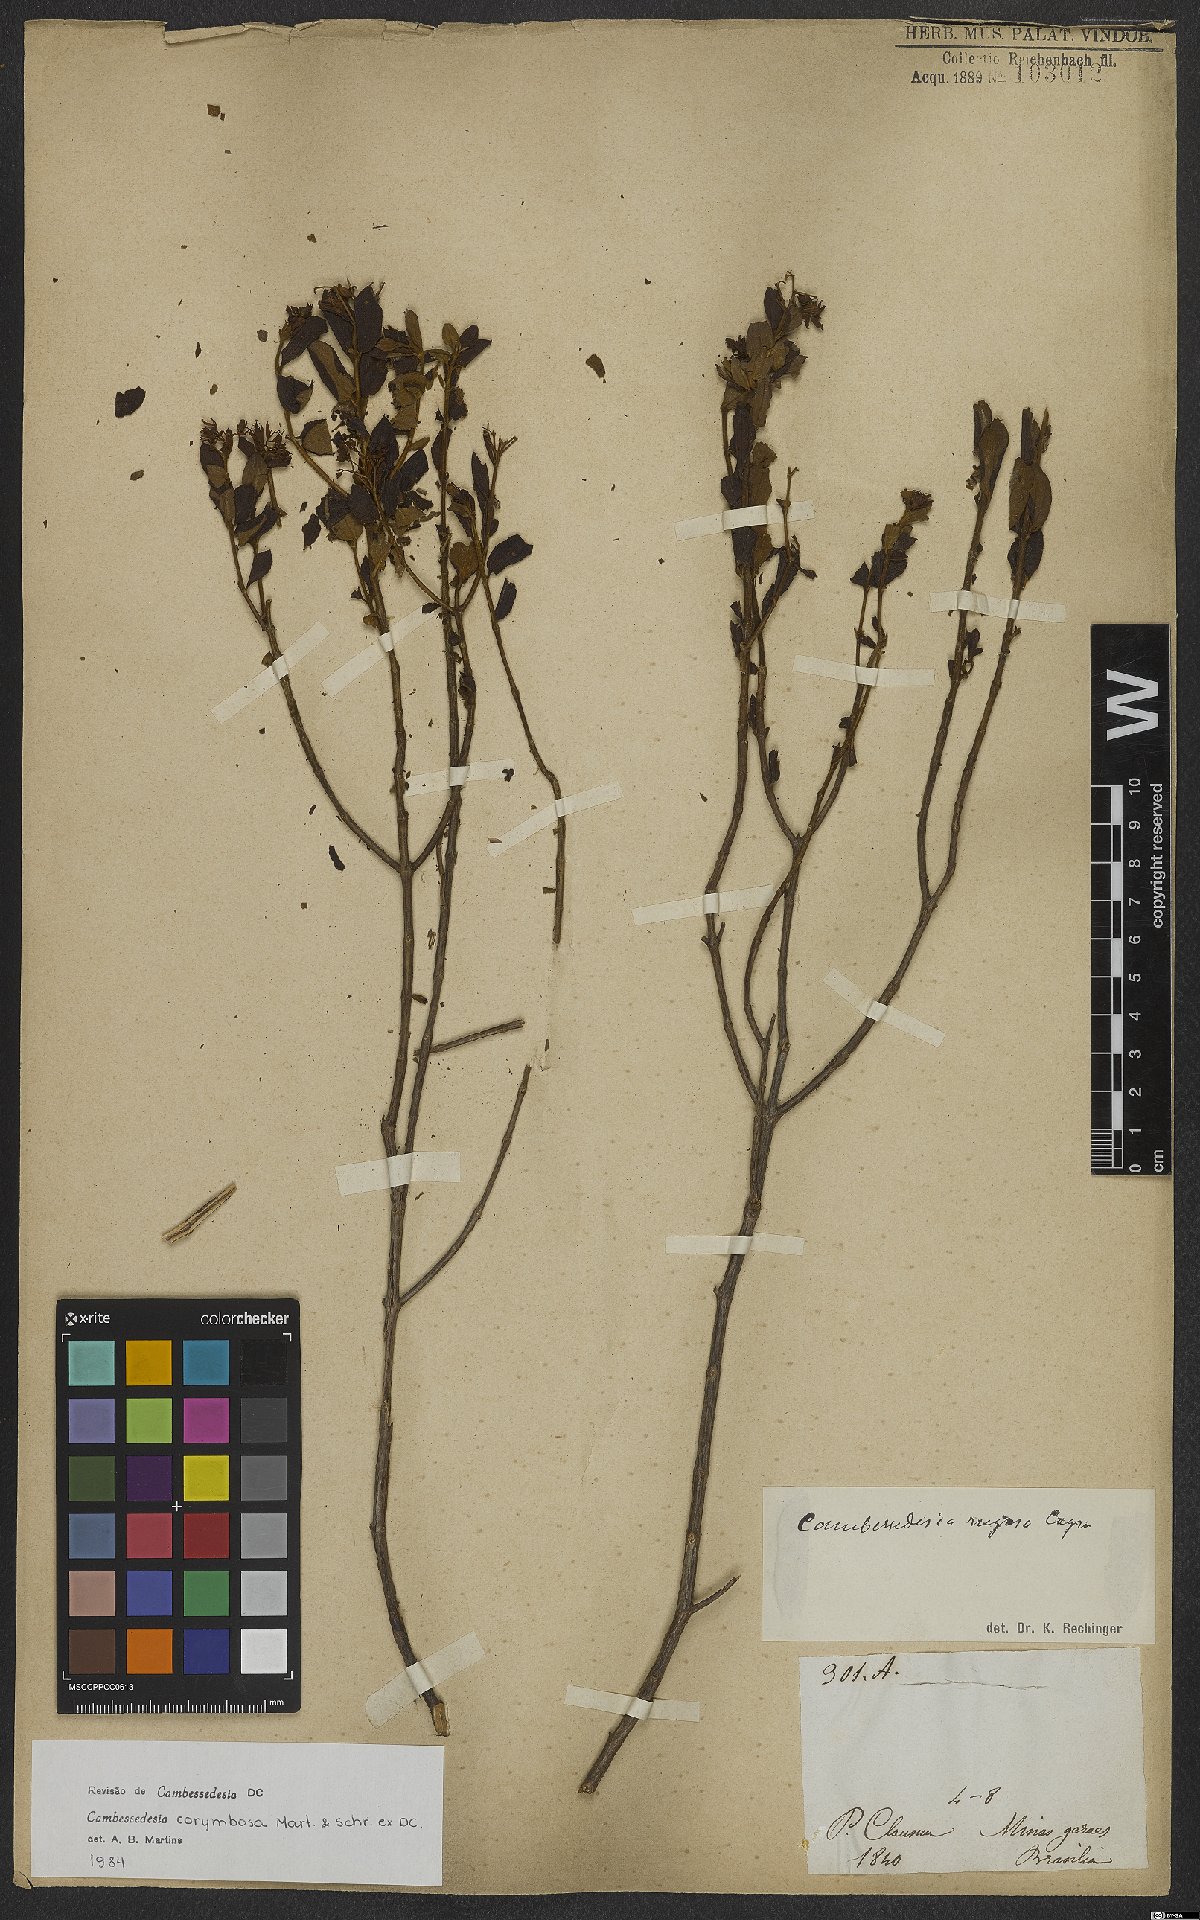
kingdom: Plantae
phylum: Tracheophyta
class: Magnoliopsida
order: Myrtales
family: Melastomataceae
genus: Cambessedesia
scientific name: Cambessedesia corymbosa
